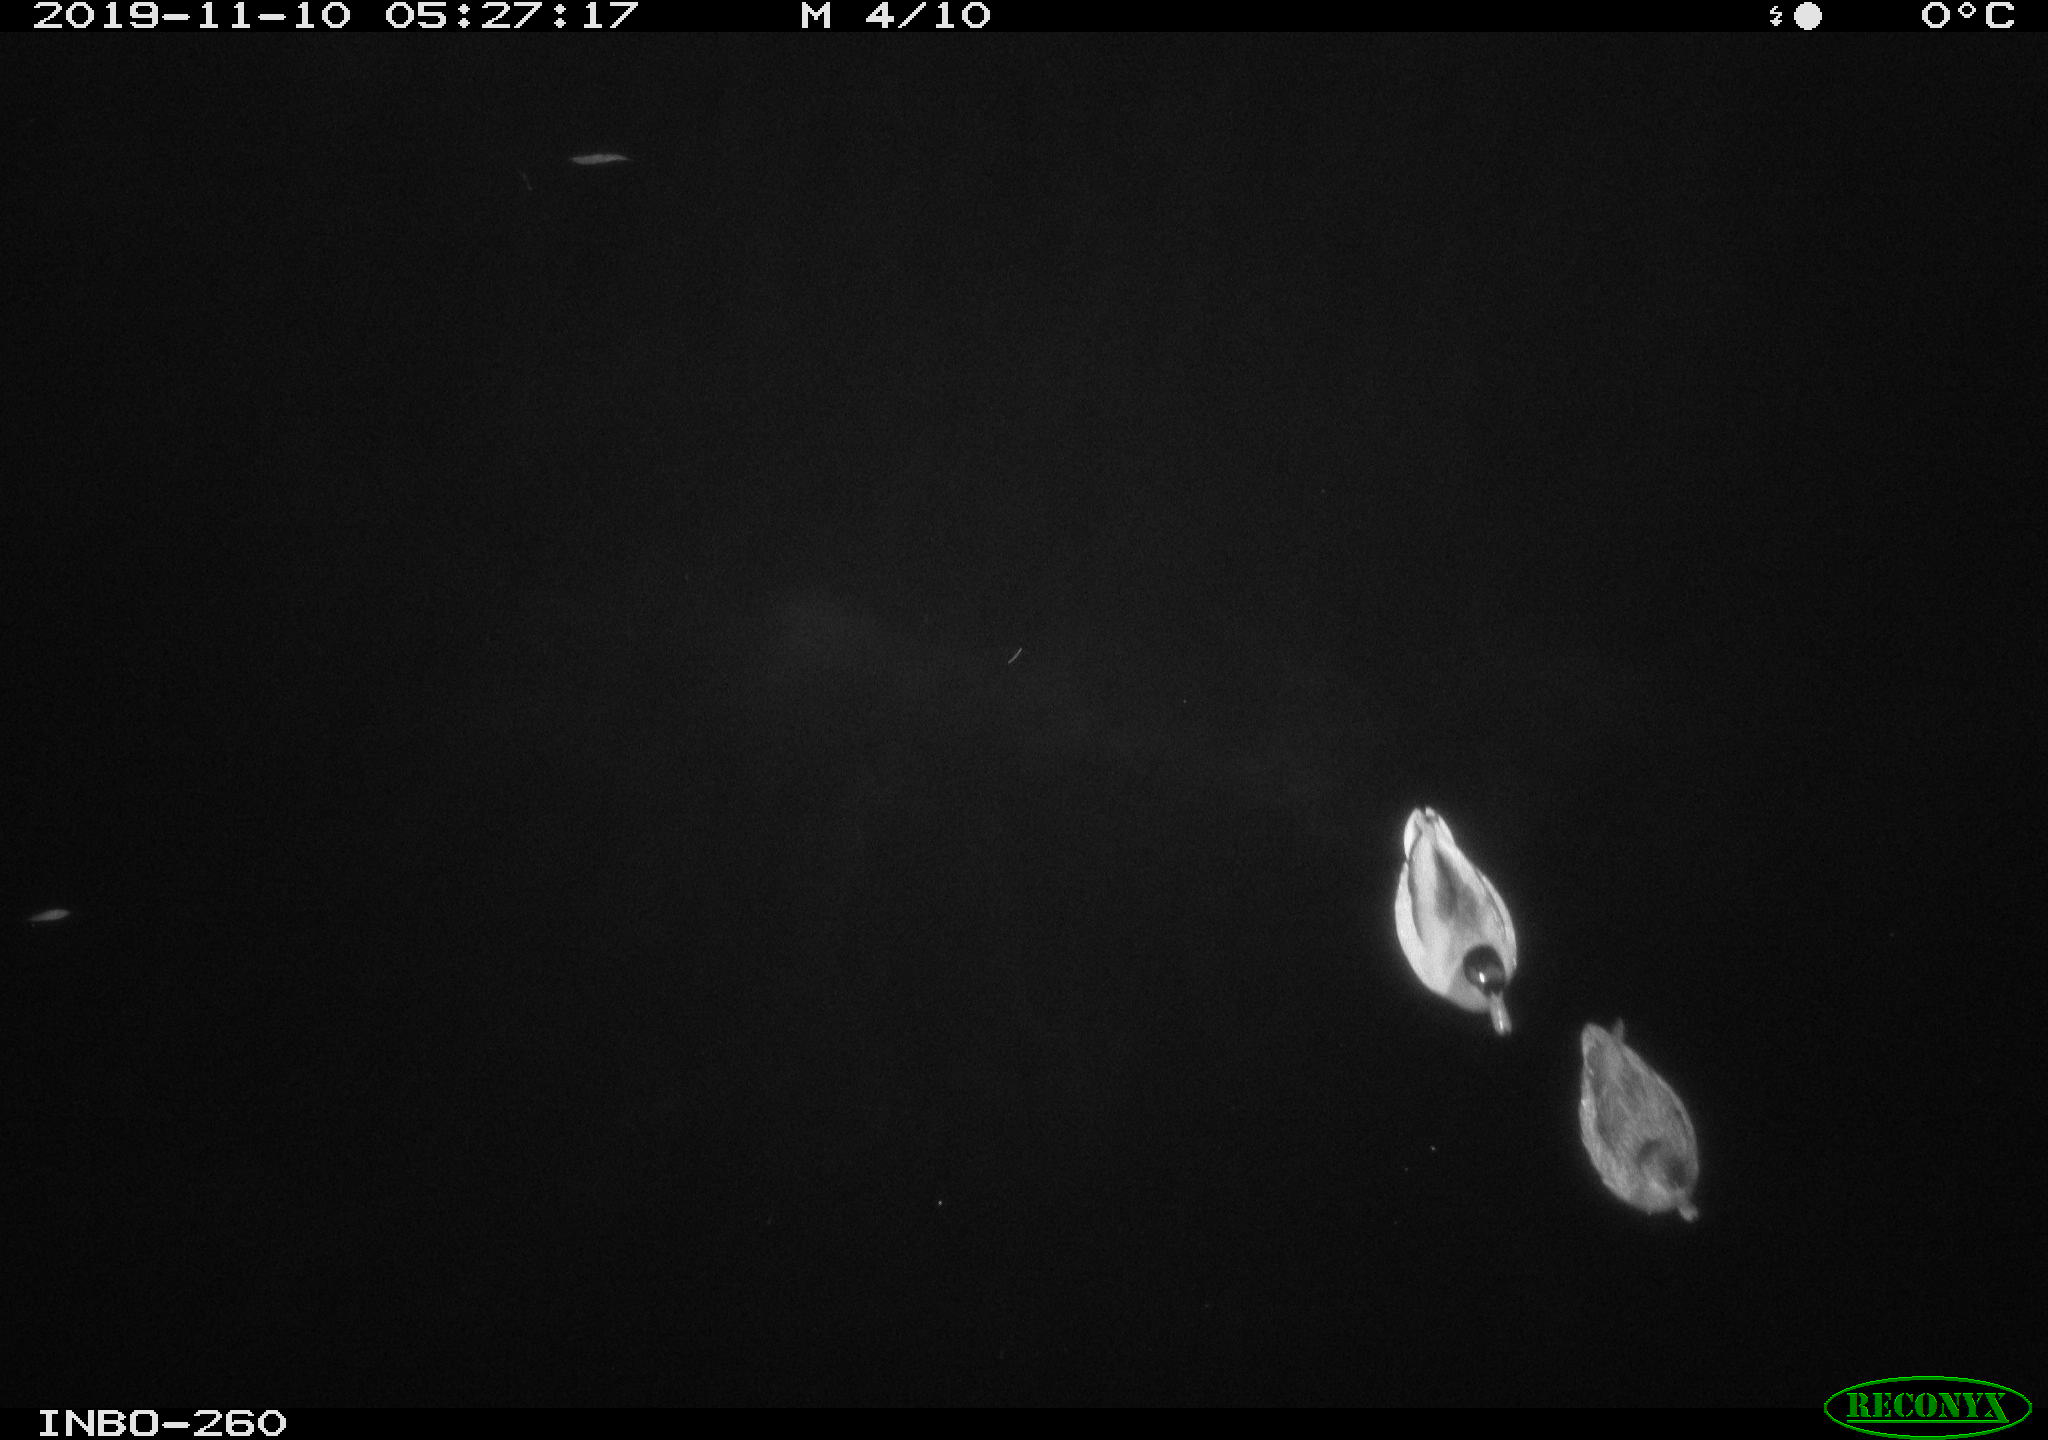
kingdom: Animalia
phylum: Chordata
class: Aves
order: Anseriformes
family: Anatidae
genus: Anas
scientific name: Anas platyrhynchos
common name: Mallard
